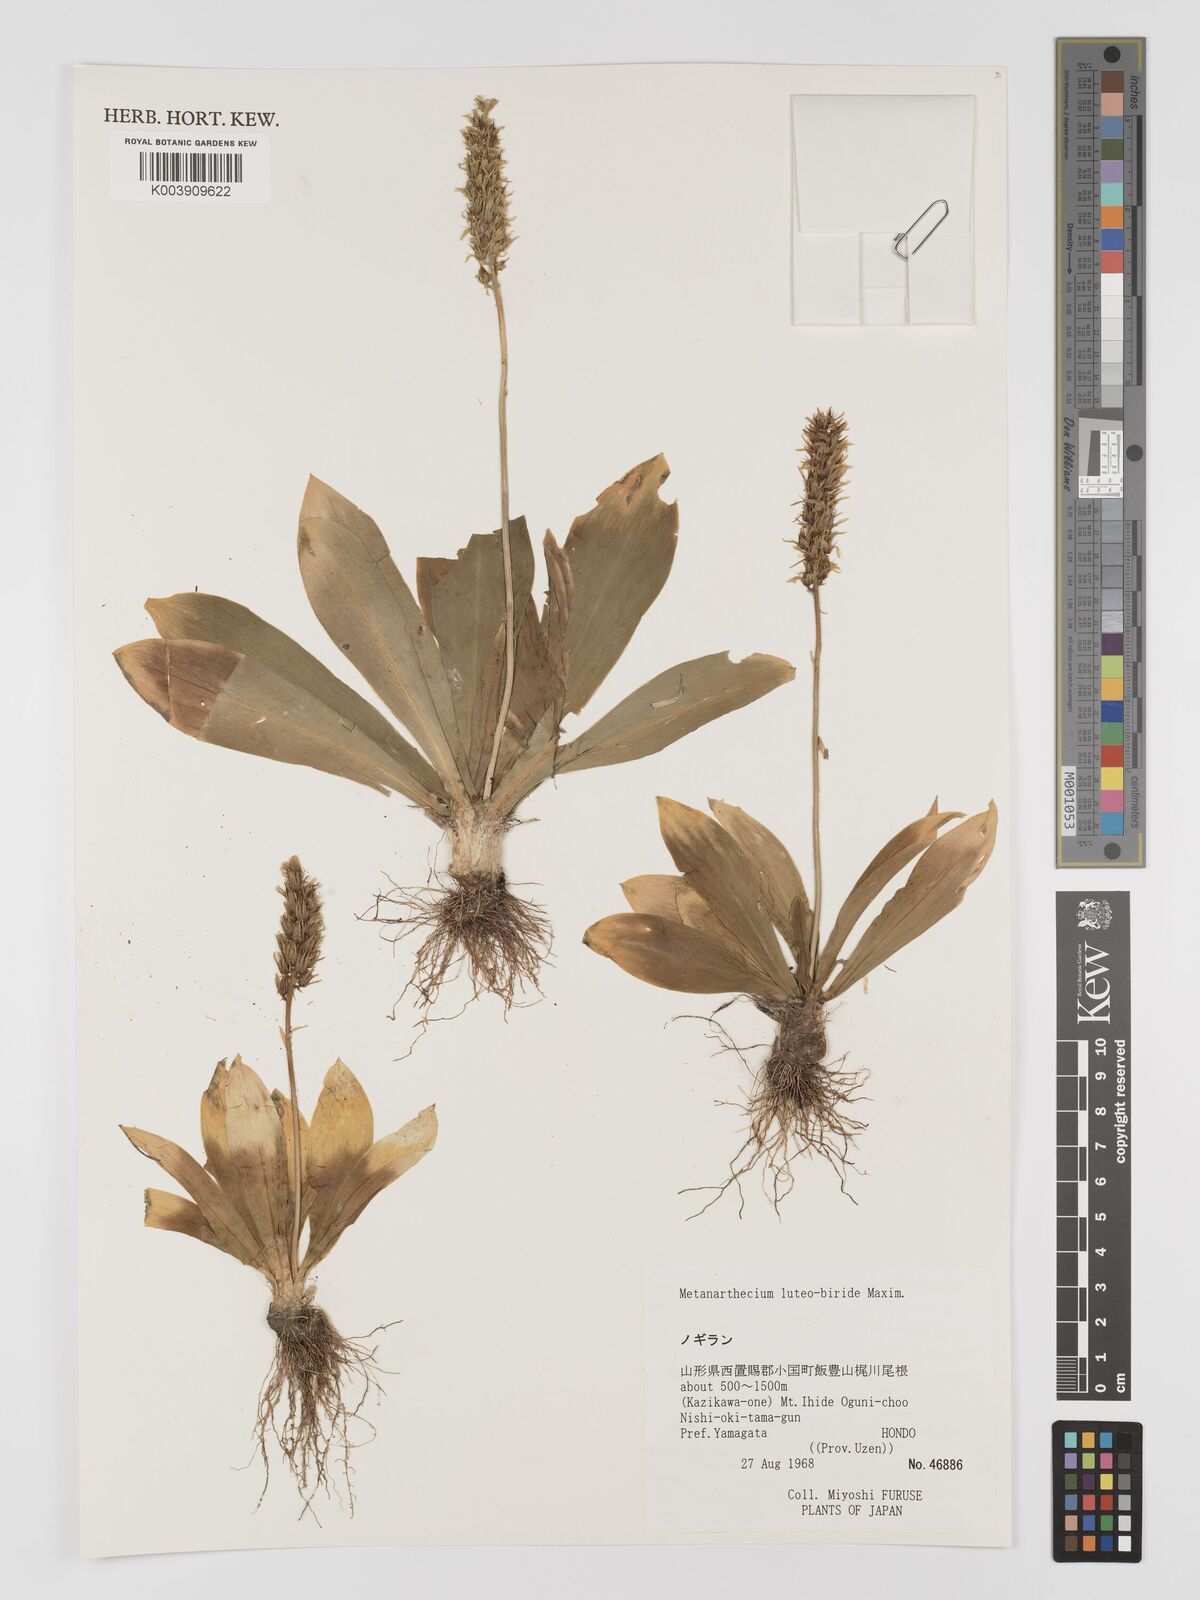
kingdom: Plantae
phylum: Tracheophyta
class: Liliopsida
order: Dioscoreales
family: Nartheciaceae
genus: Metanarthecium
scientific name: Metanarthecium luteoviride
